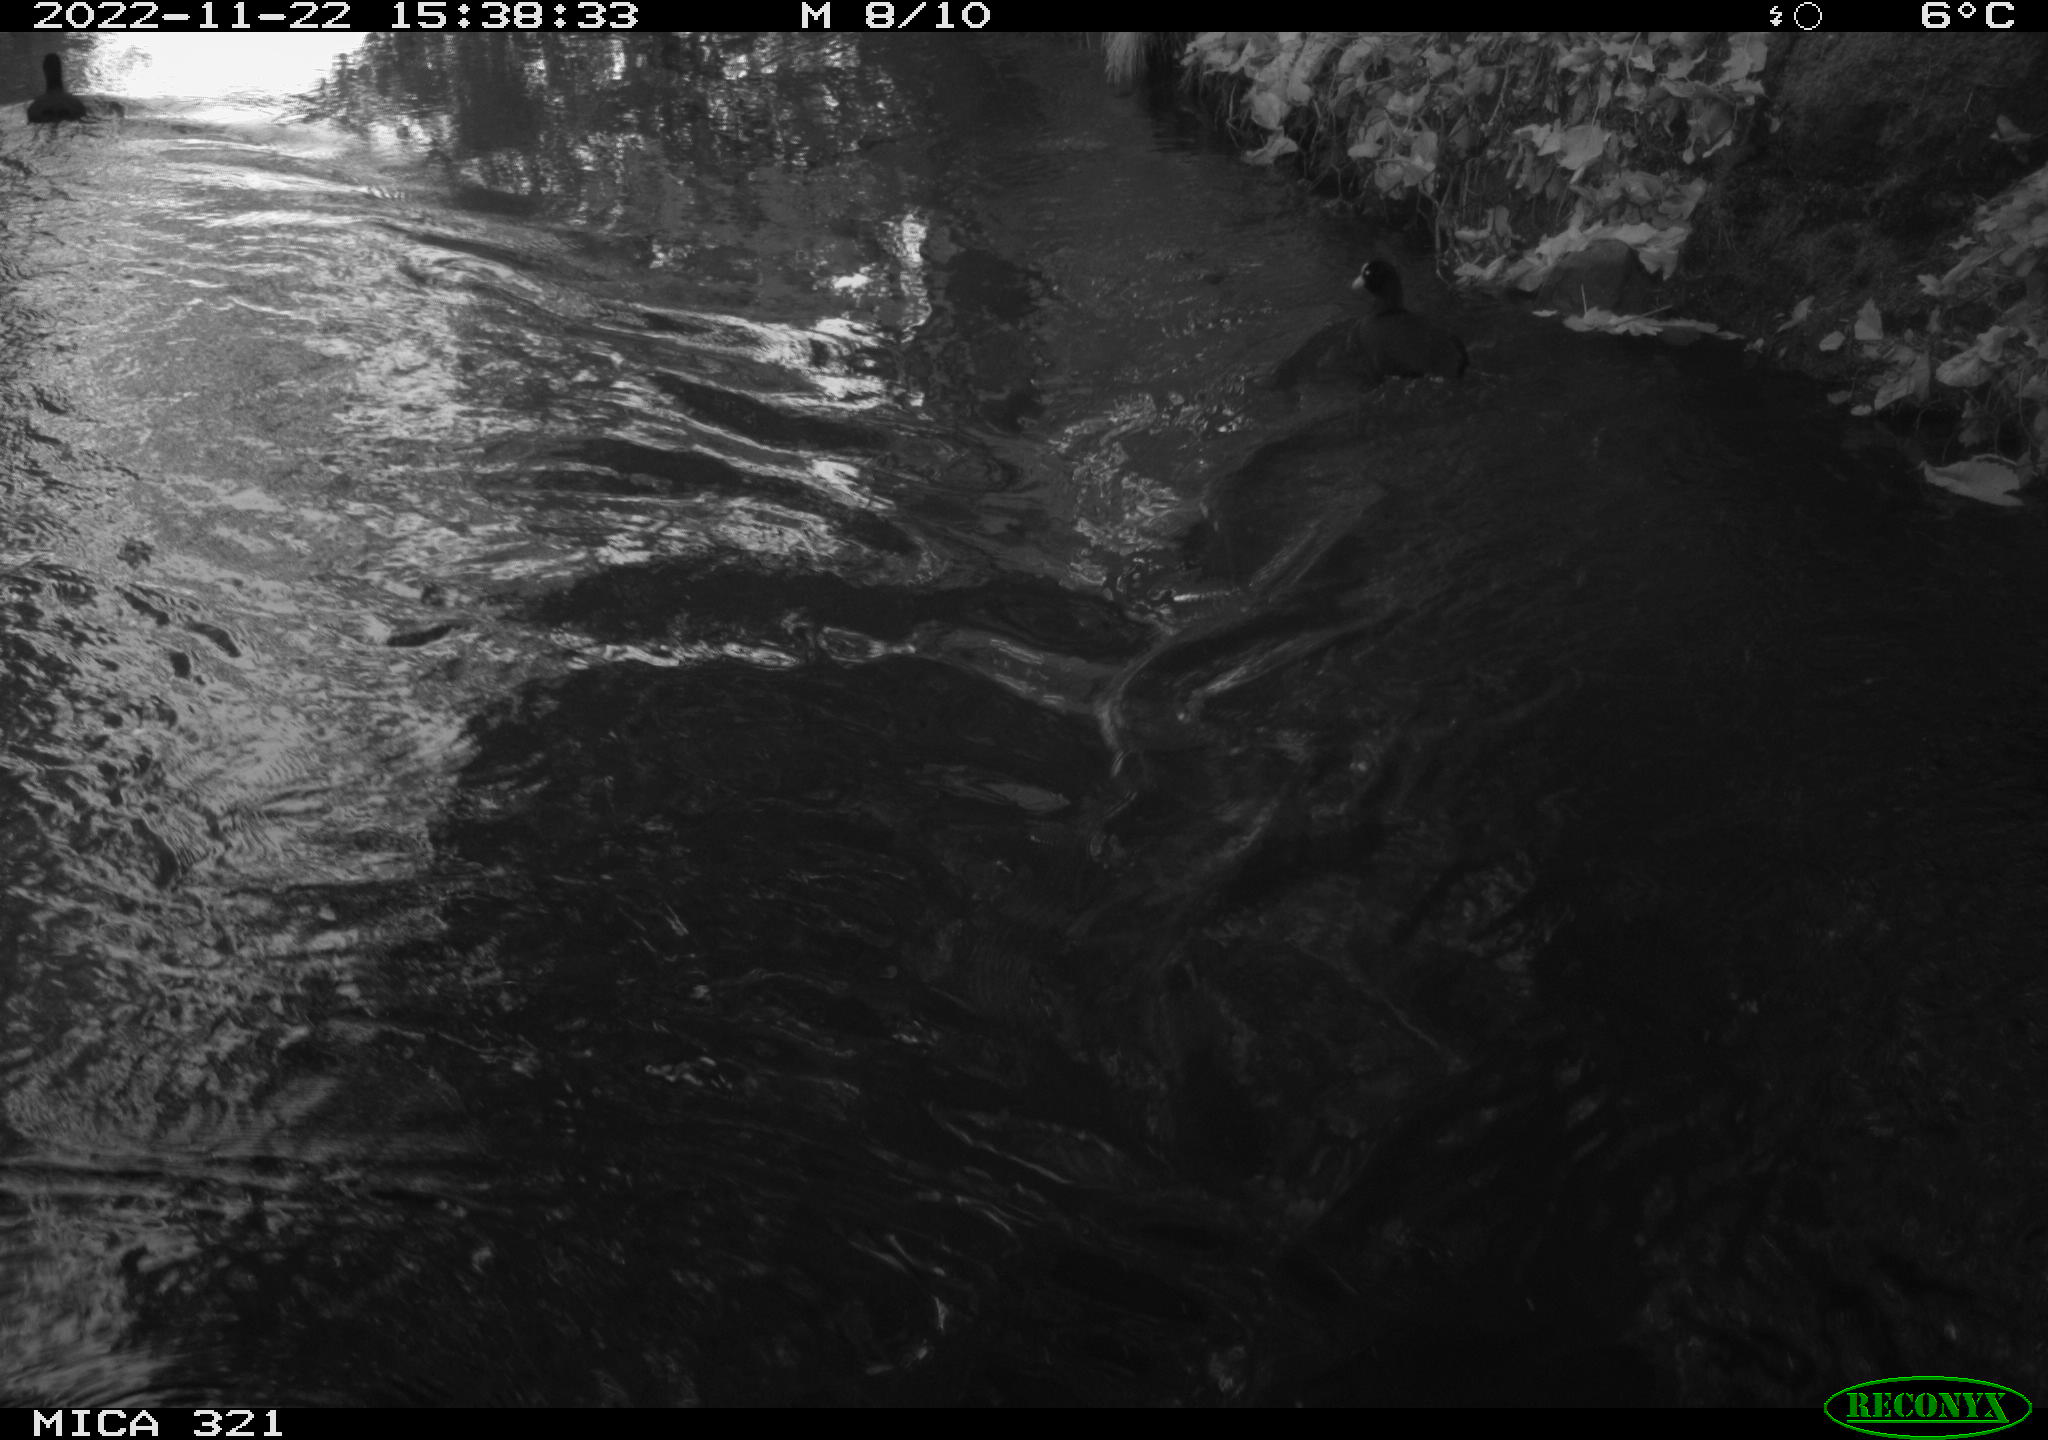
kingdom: Animalia
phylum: Chordata
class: Aves
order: Anseriformes
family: Anatidae
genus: Anas
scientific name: Anas
